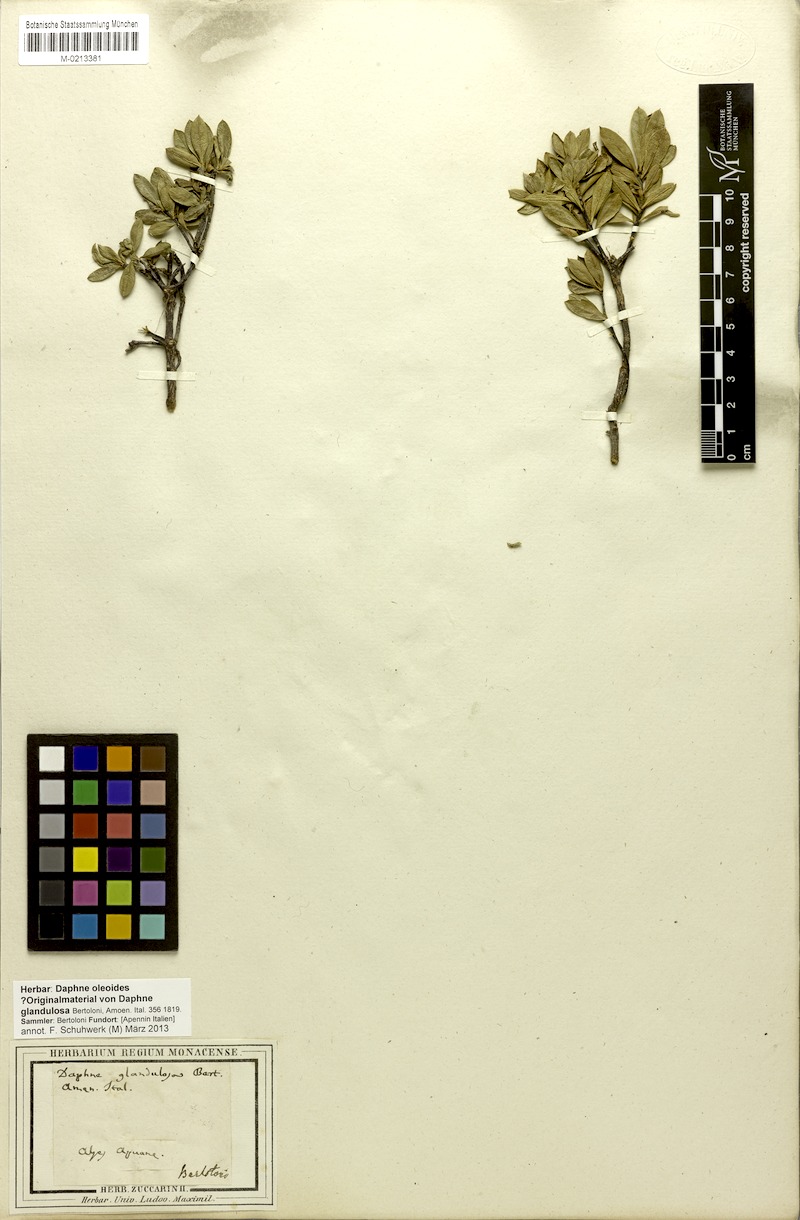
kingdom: Plantae
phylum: Tracheophyta
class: Magnoliopsida
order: Malvales
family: Thymelaeaceae
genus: Daphne
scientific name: Daphne oleoides
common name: Spurge-olive
